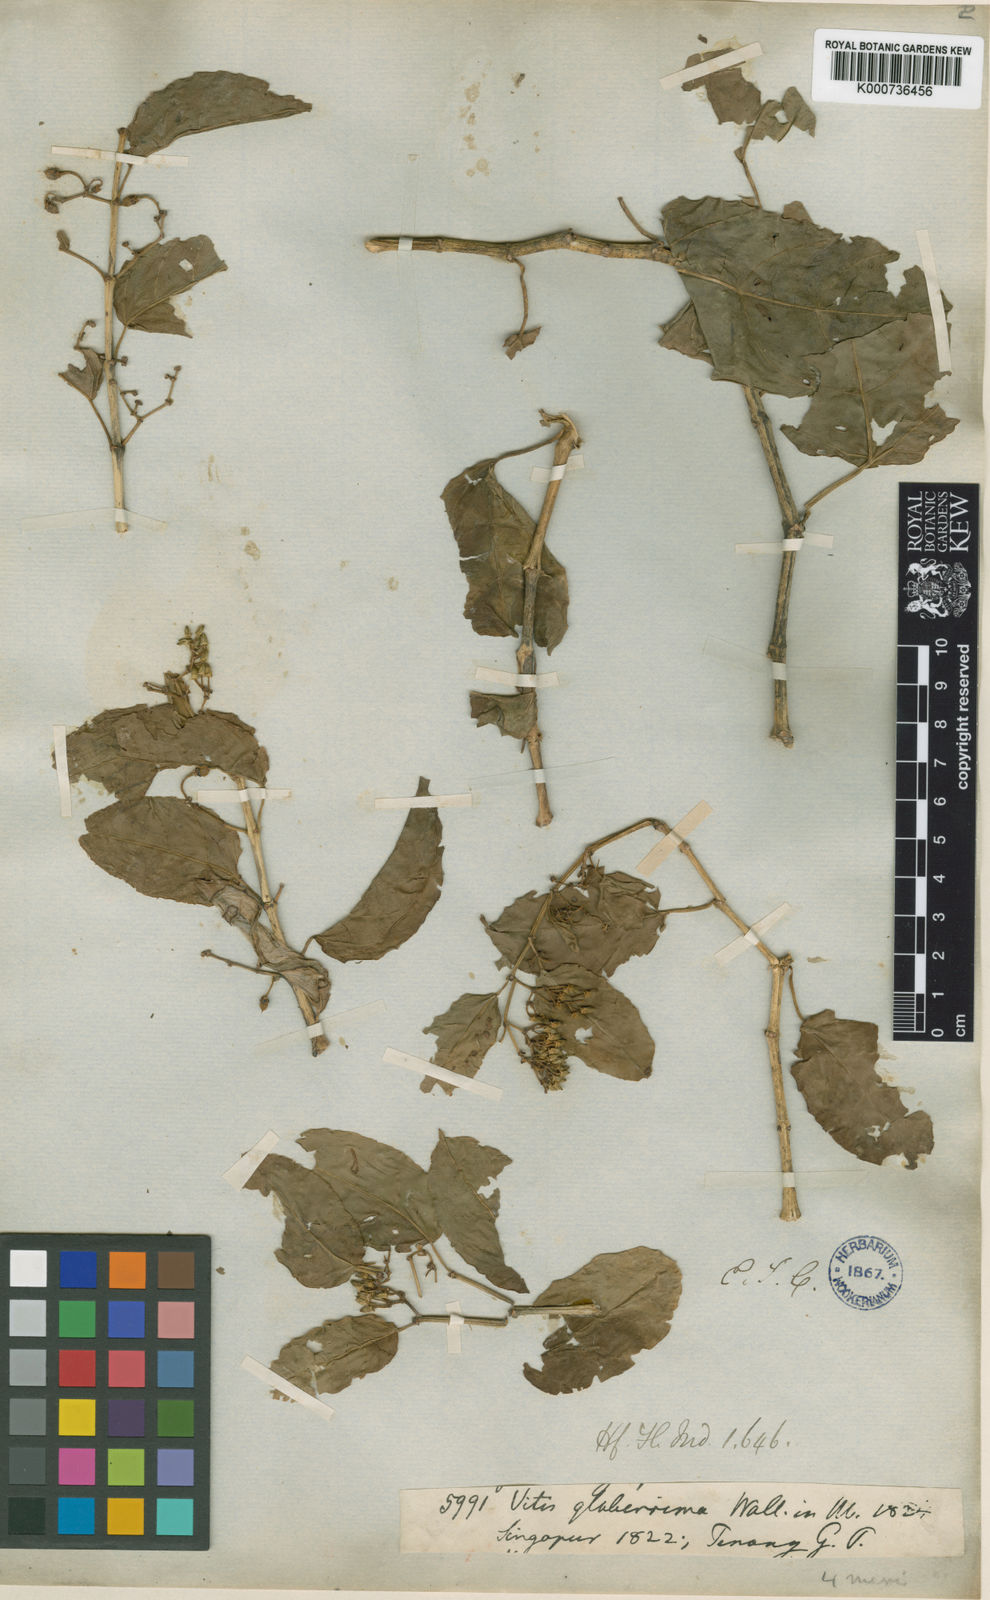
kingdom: Plantae
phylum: Tracheophyta
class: Magnoliopsida
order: Vitales
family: Vitaceae
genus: Cissus
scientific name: Cissus nodosa
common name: Grape ivy
